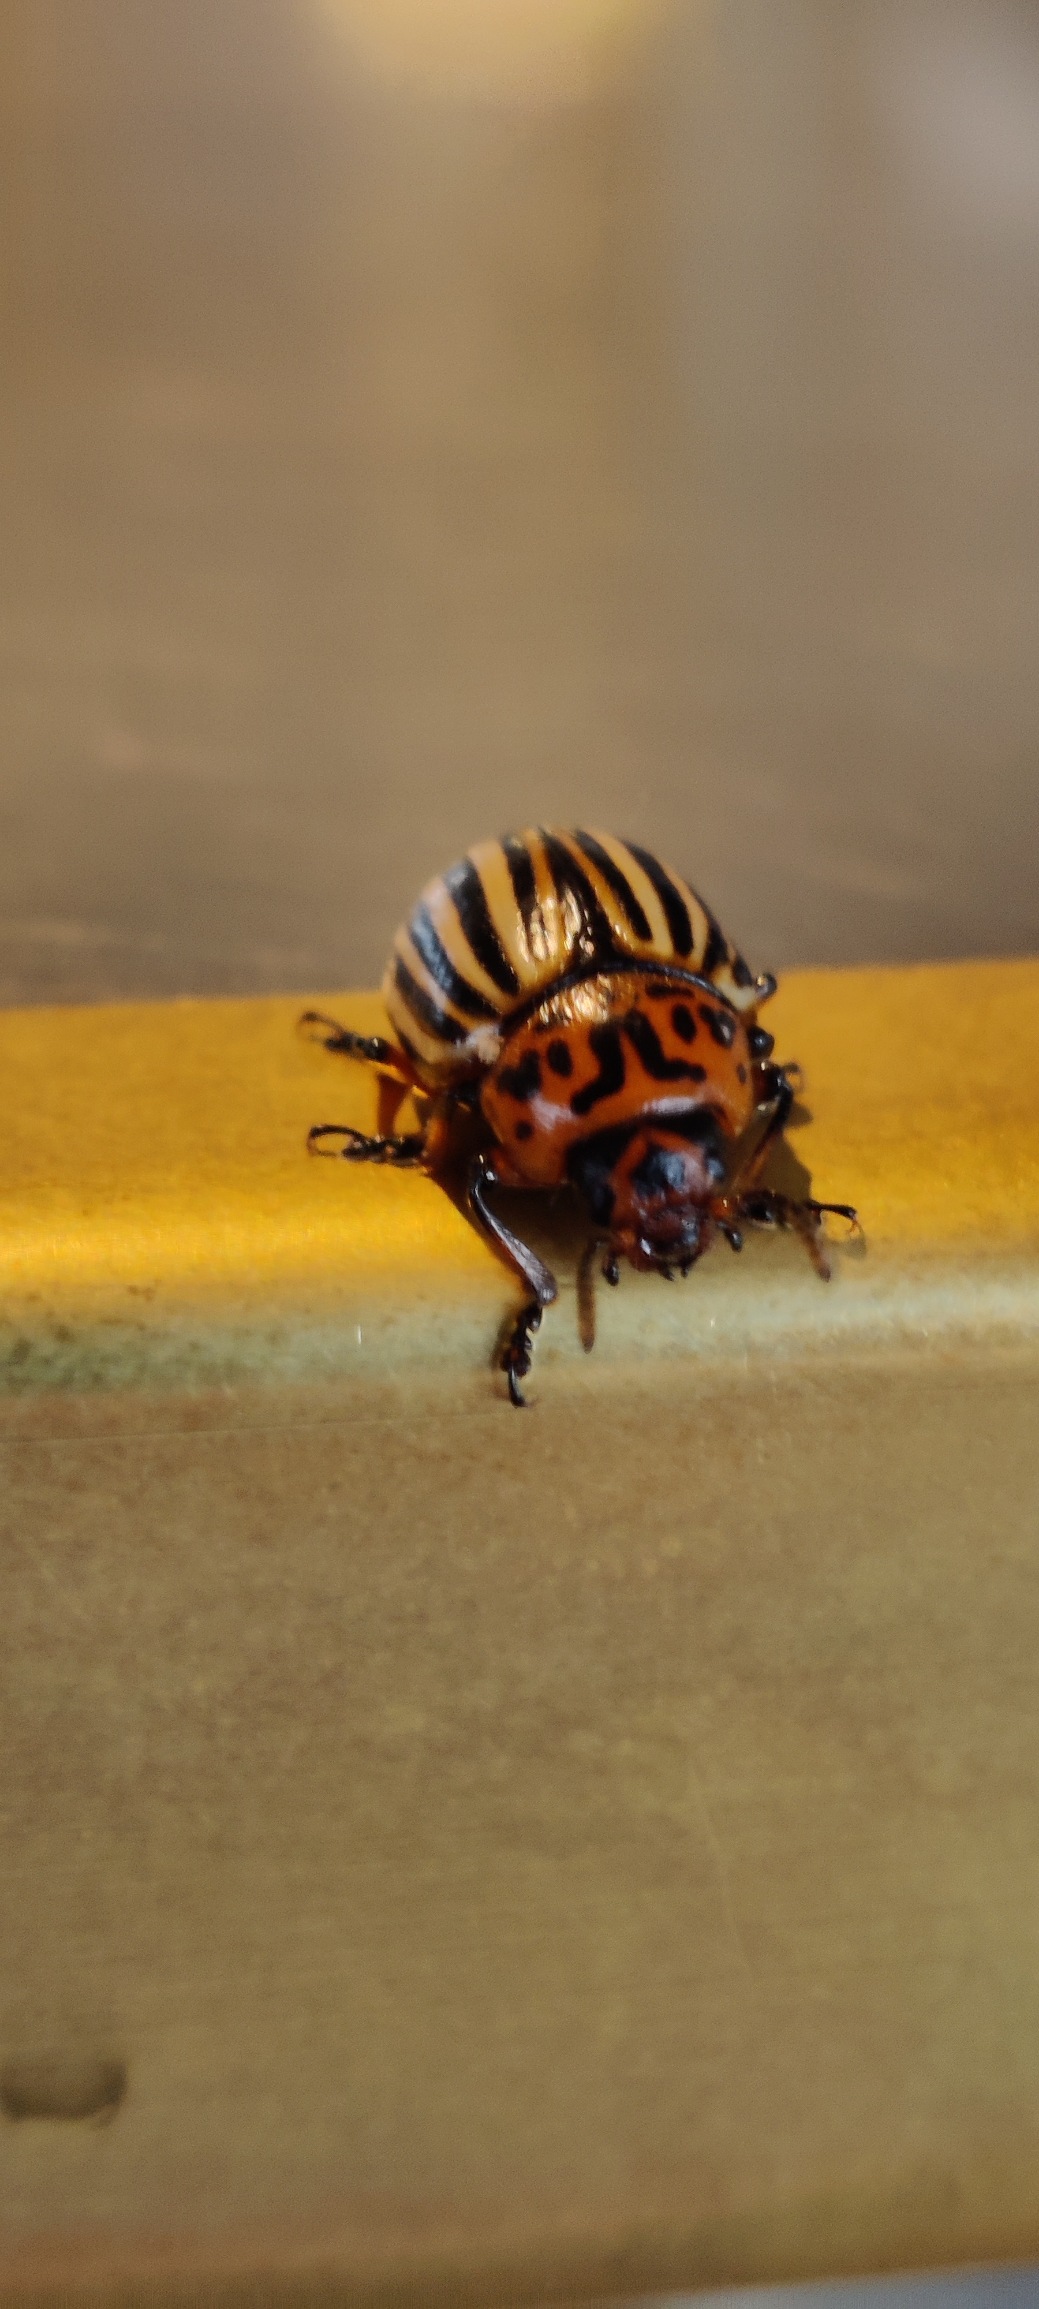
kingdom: Animalia
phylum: Arthropoda
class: Insecta
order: Coleoptera
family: Chrysomelidae
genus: Leptinotarsa
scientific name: Leptinotarsa decemlineata
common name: Coloradobille
